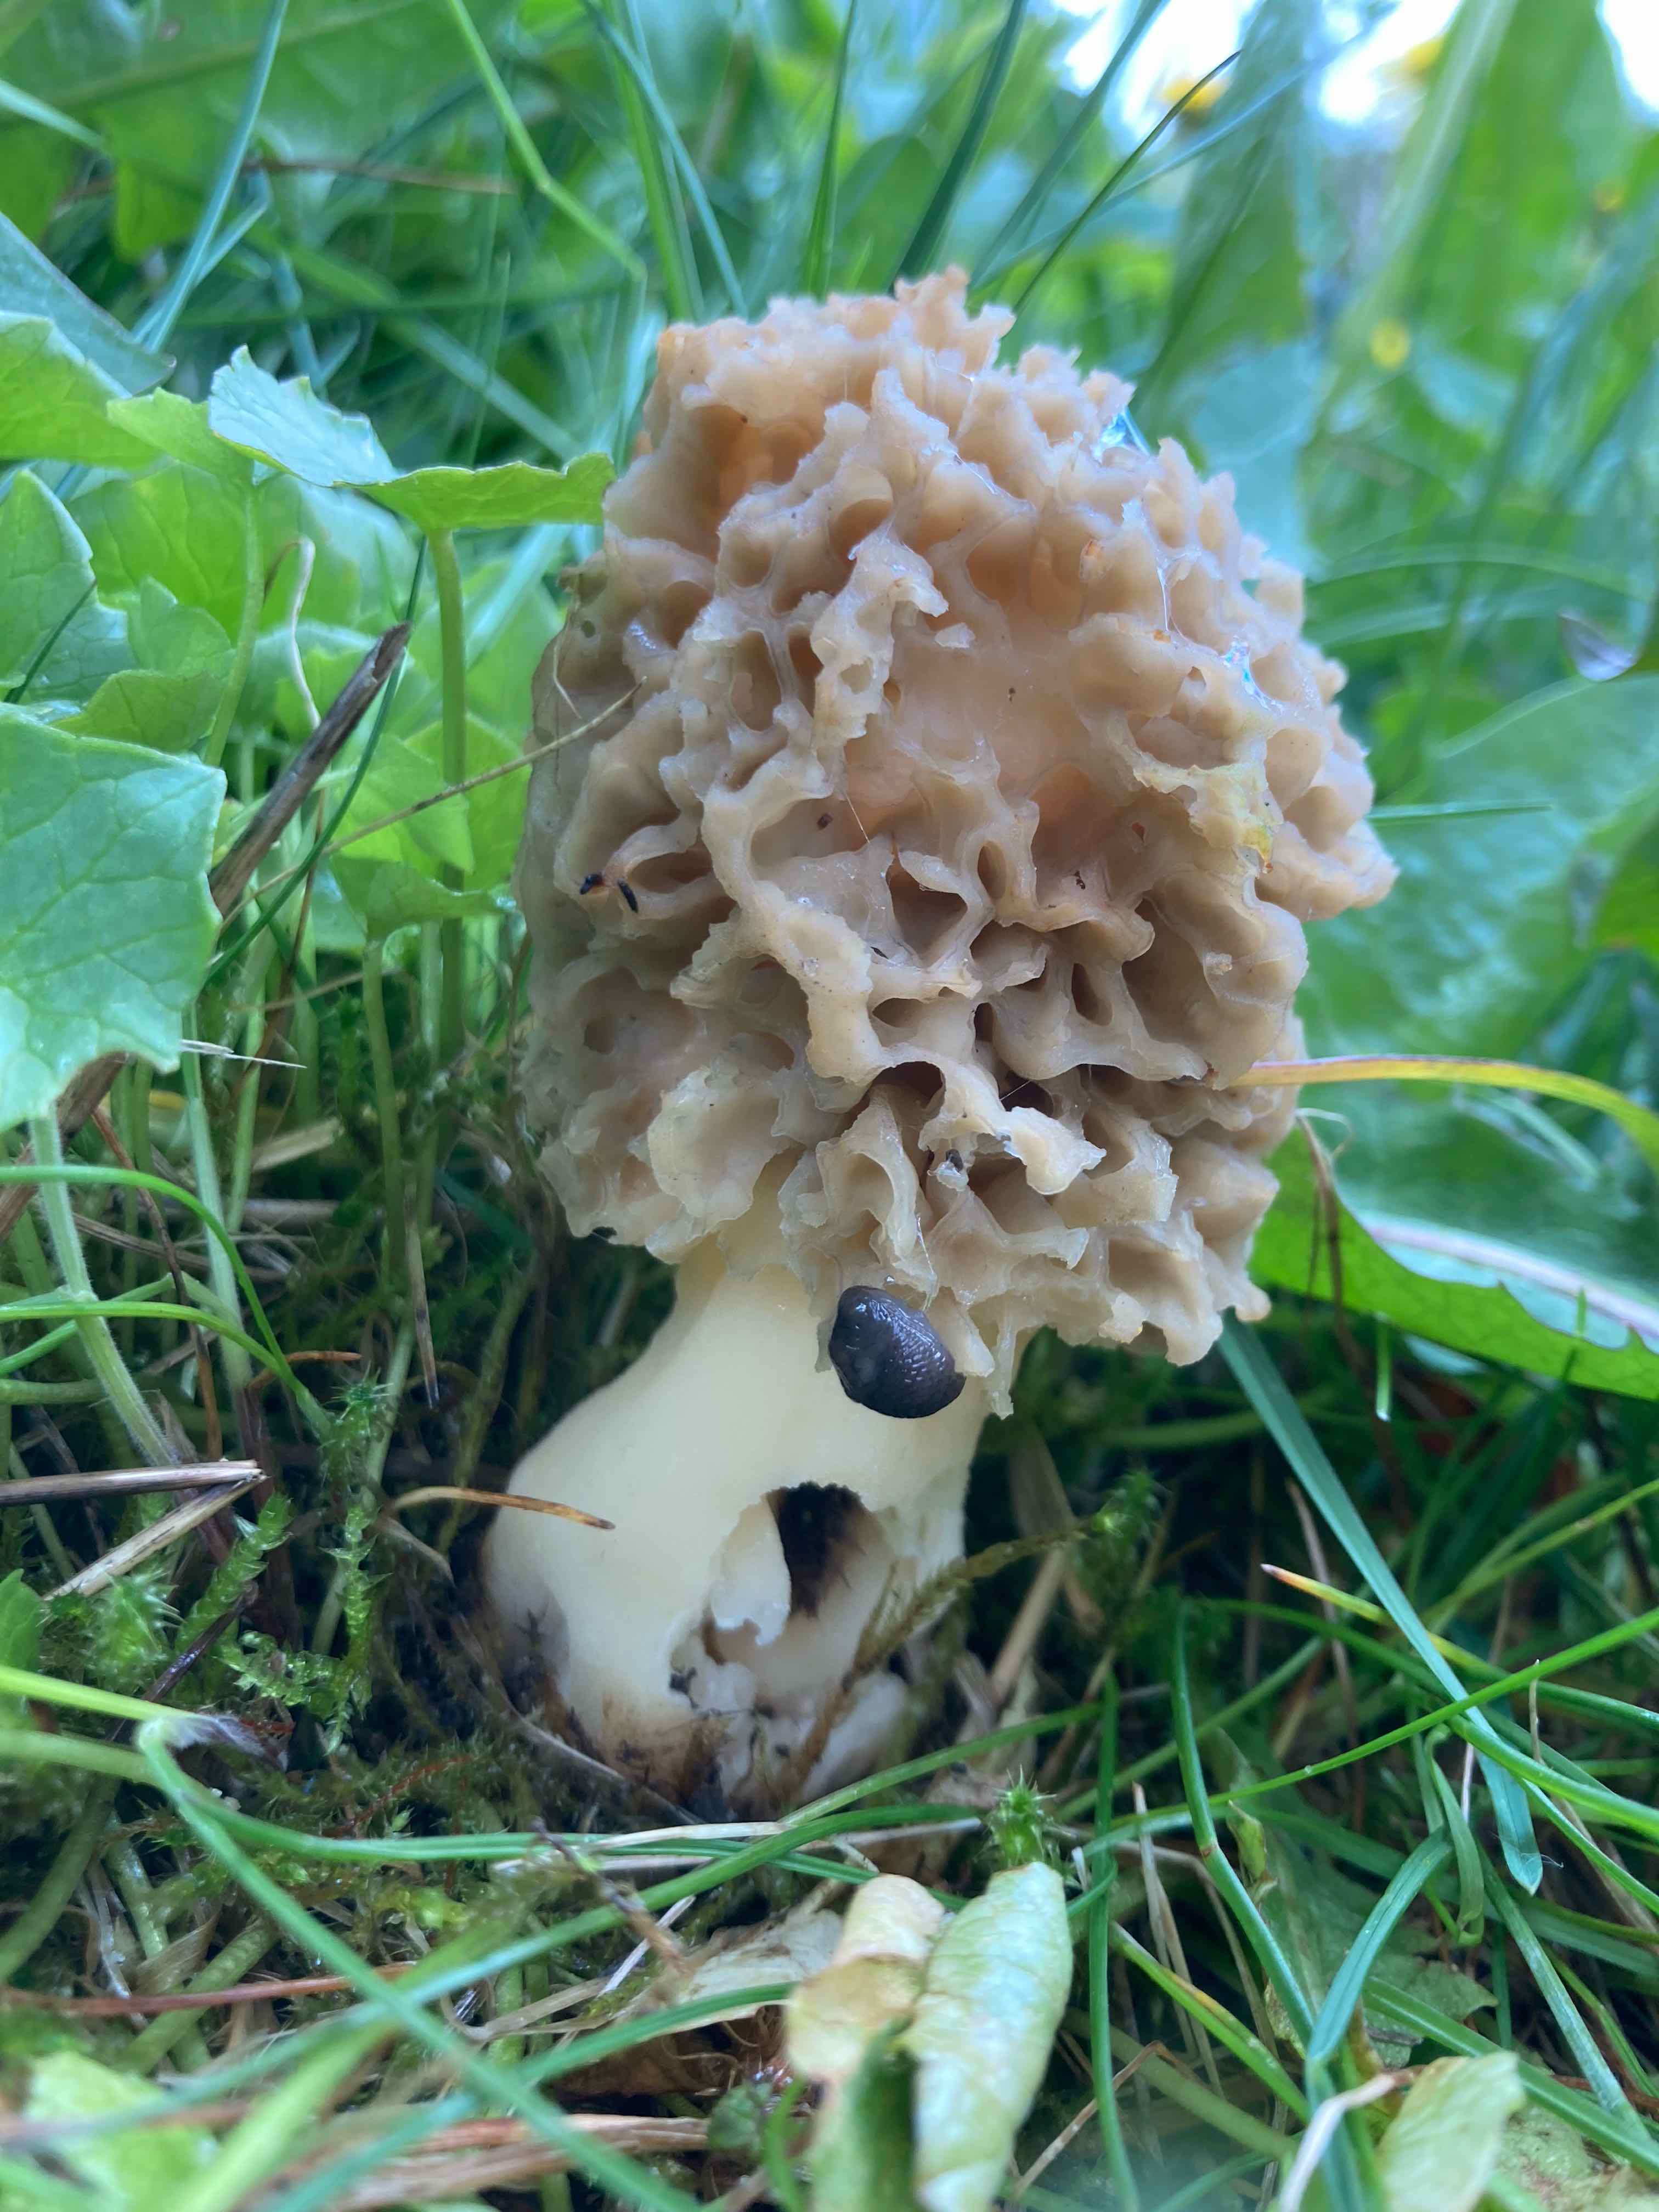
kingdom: Fungi
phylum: Ascomycota
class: Pezizomycetes
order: Pezizales
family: Morchellaceae
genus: Morchella
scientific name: Morchella
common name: morkel
